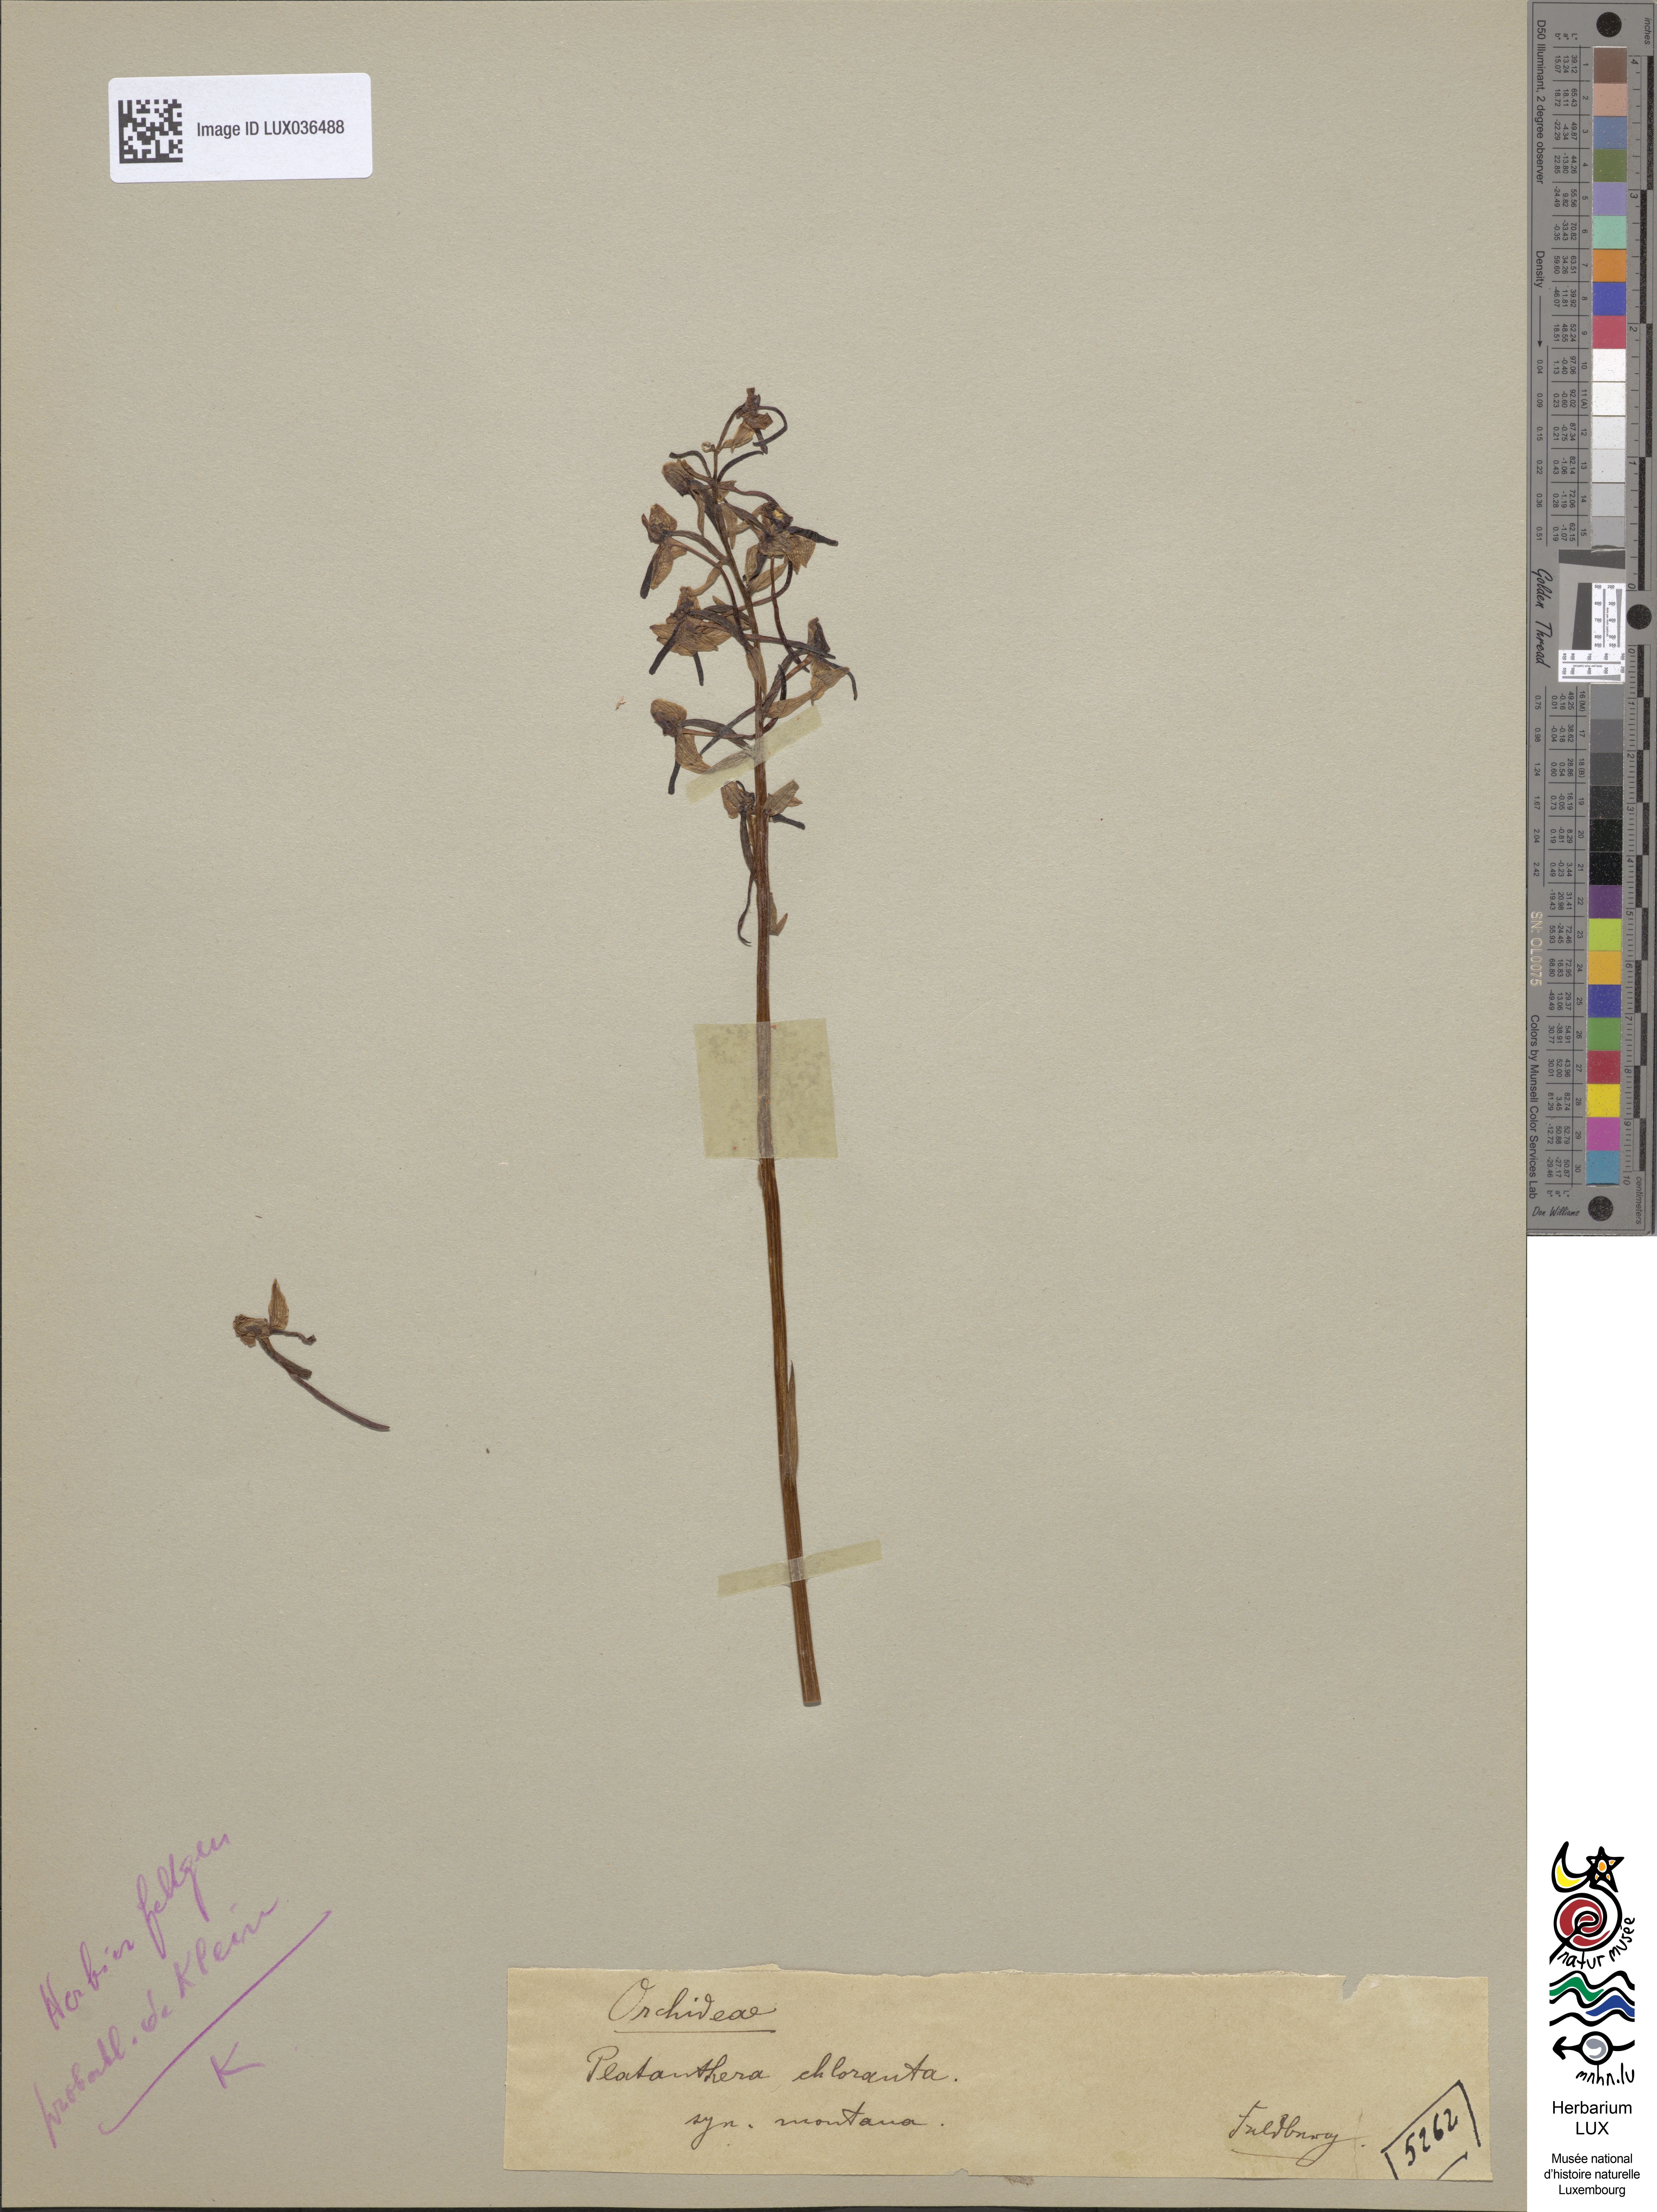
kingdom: Plantae
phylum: Tracheophyta
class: Liliopsida
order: Asparagales
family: Orchidaceae
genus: Platanthera
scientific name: Platanthera chlorantha
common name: Greater butterfly-orchid
